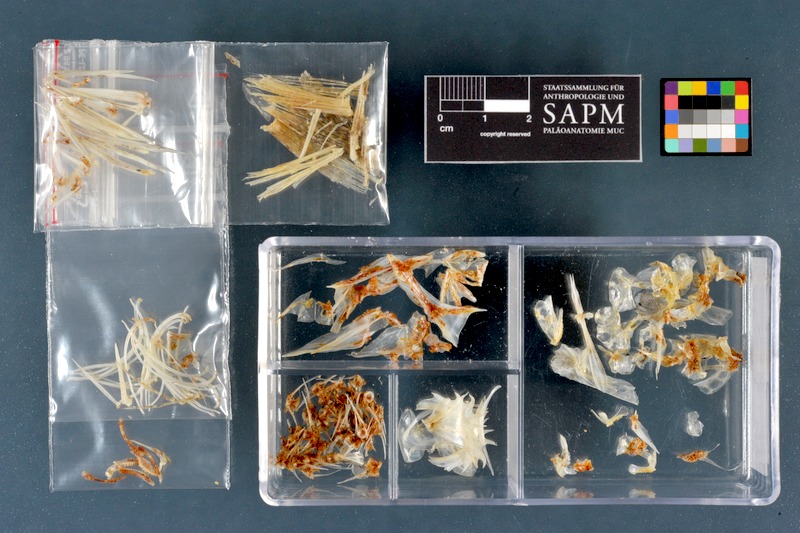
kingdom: Animalia
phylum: Chordata
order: Perciformes
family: Percidae
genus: Gymnocephalus
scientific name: Gymnocephalus cernua
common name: Ruffe
